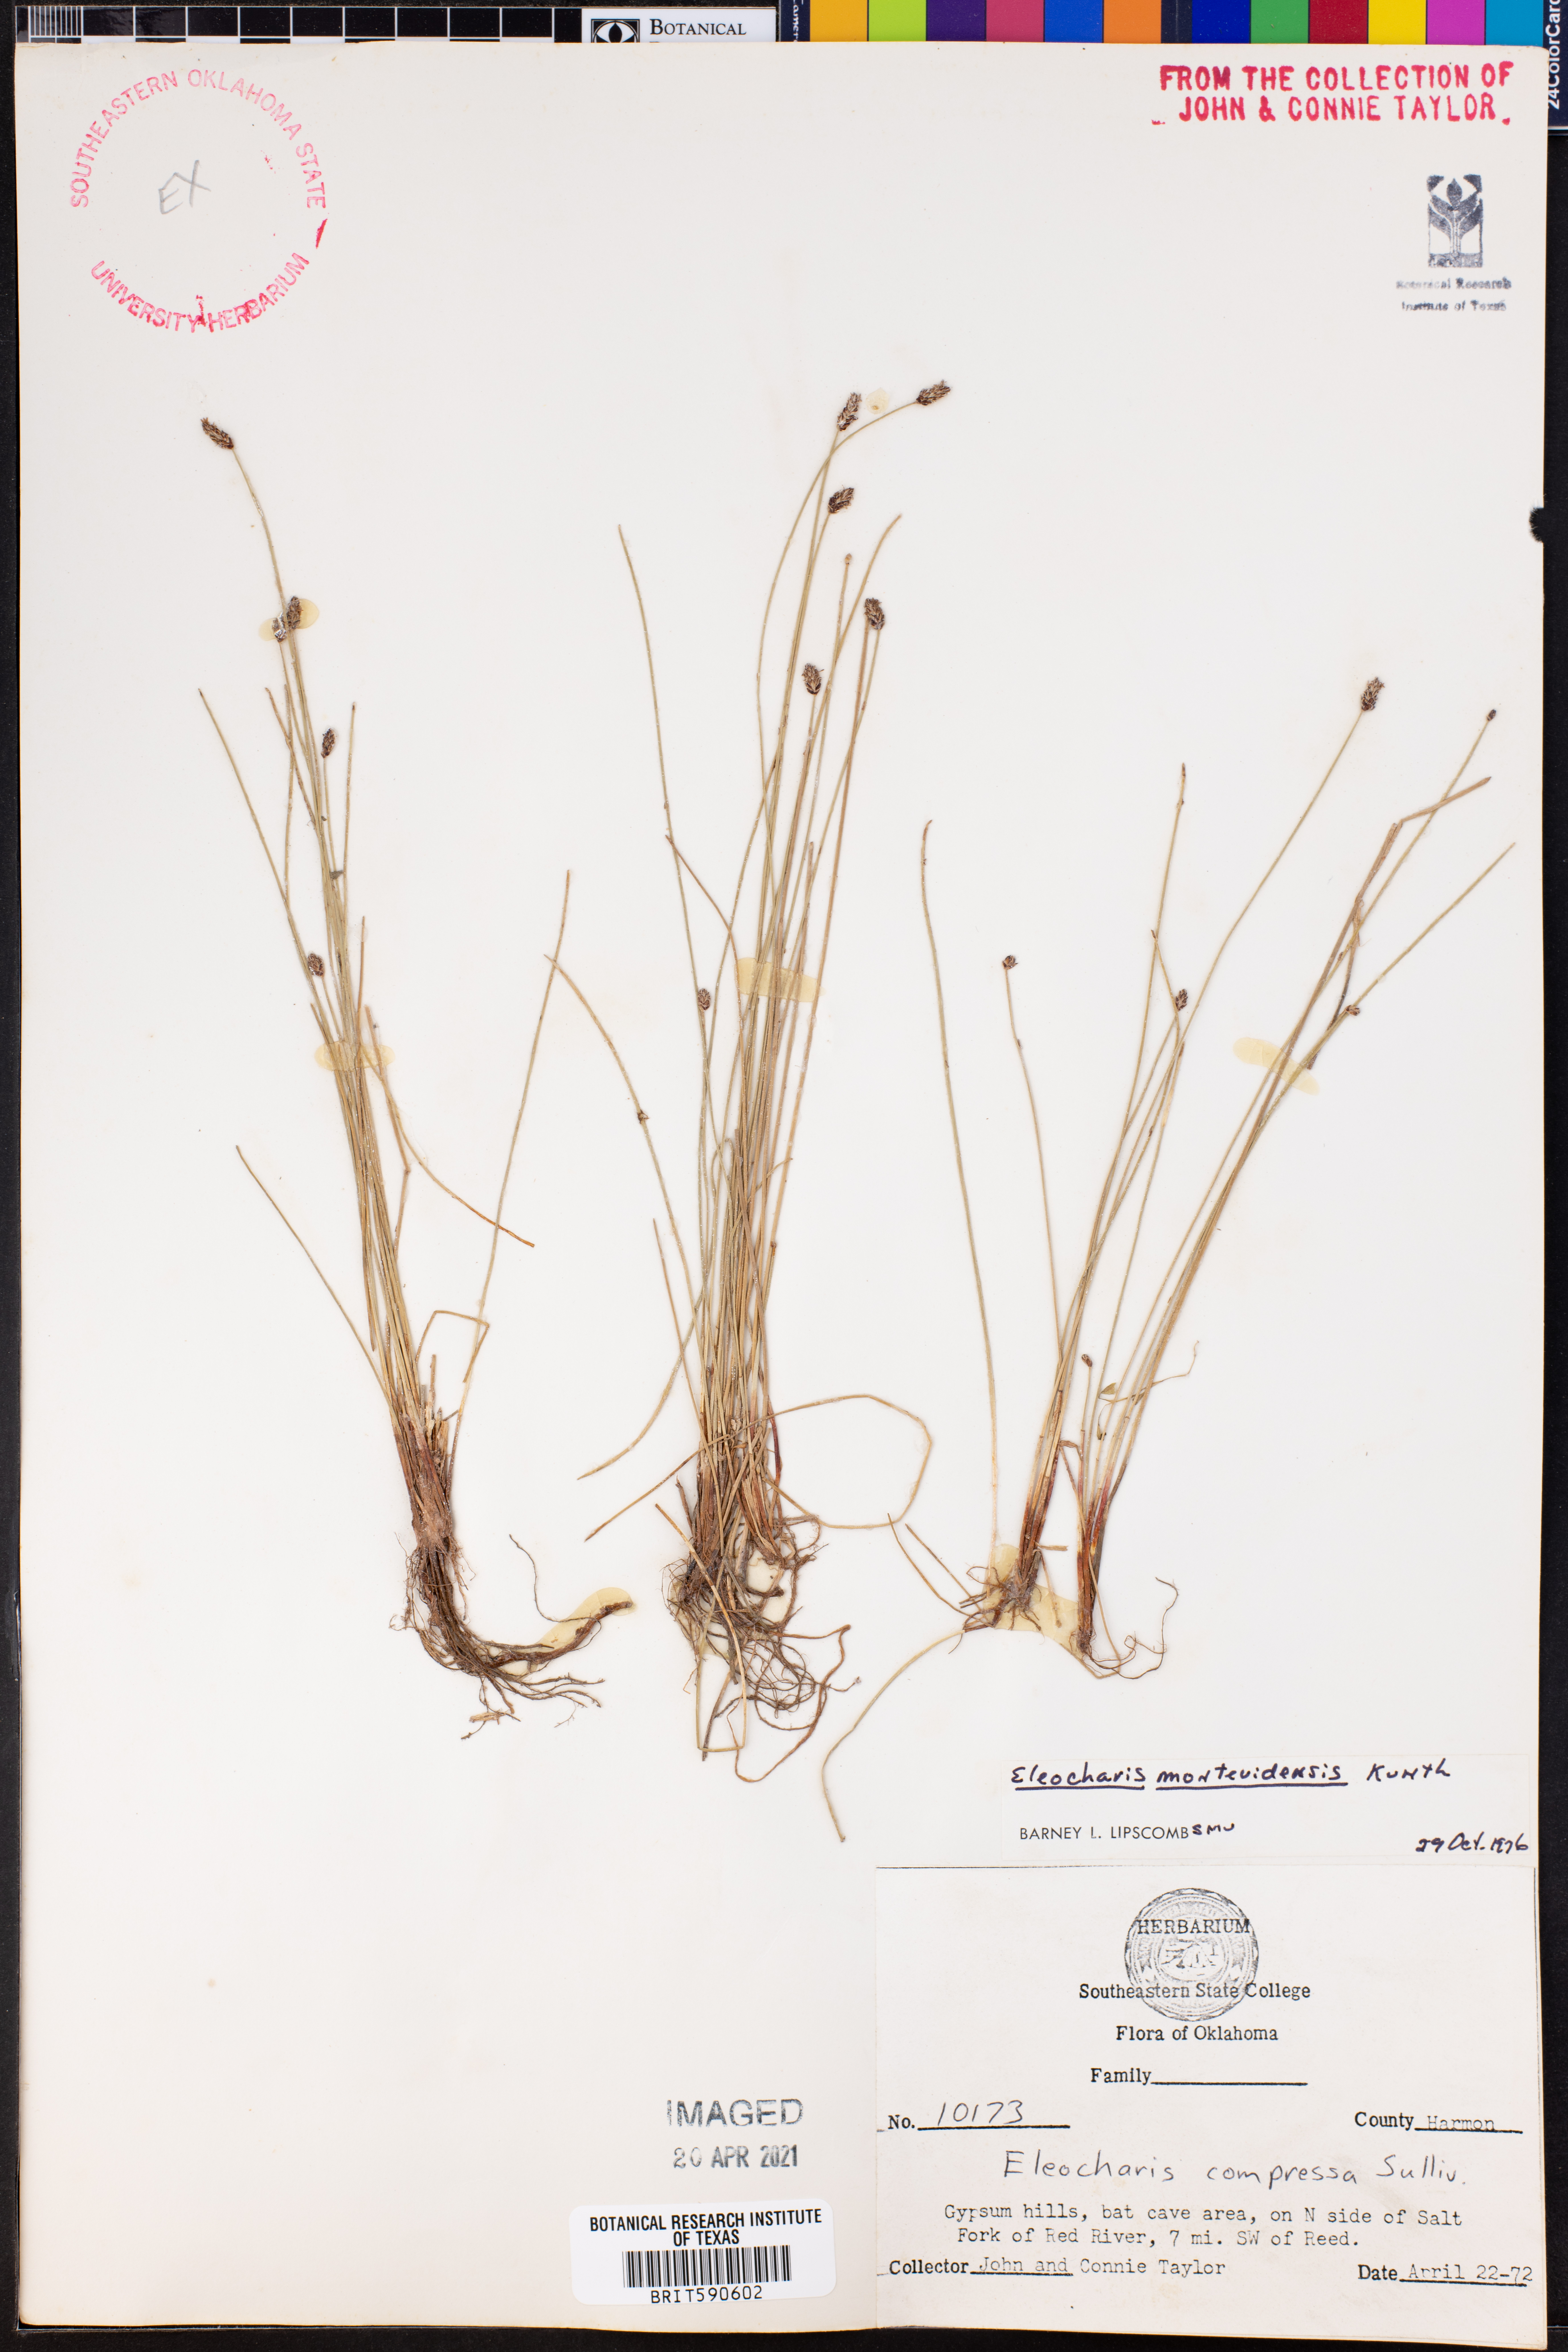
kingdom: Plantae
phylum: Tracheophyta
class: Liliopsida
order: Poales
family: Cyperaceae
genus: Eleocharis
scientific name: Eleocharis montana
